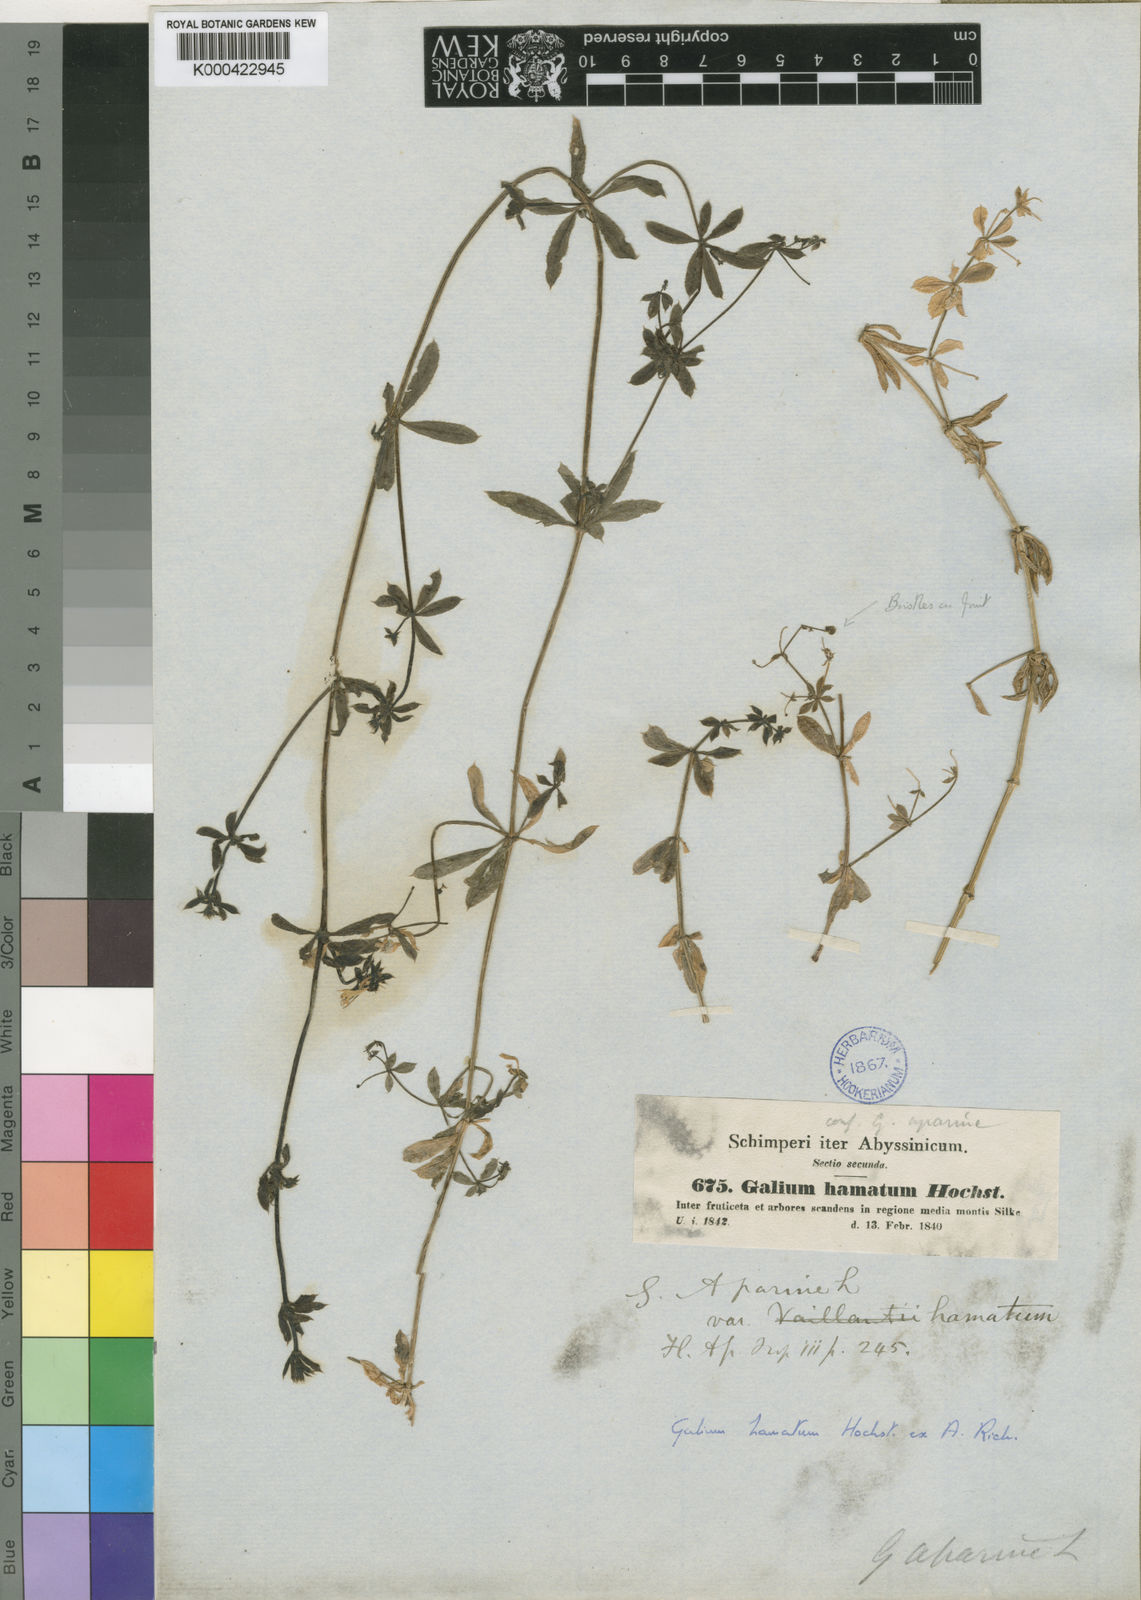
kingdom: Plantae
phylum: Tracheophyta
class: Magnoliopsida
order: Gentianales
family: Rubiaceae
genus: Galium
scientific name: Galium aparinoides
